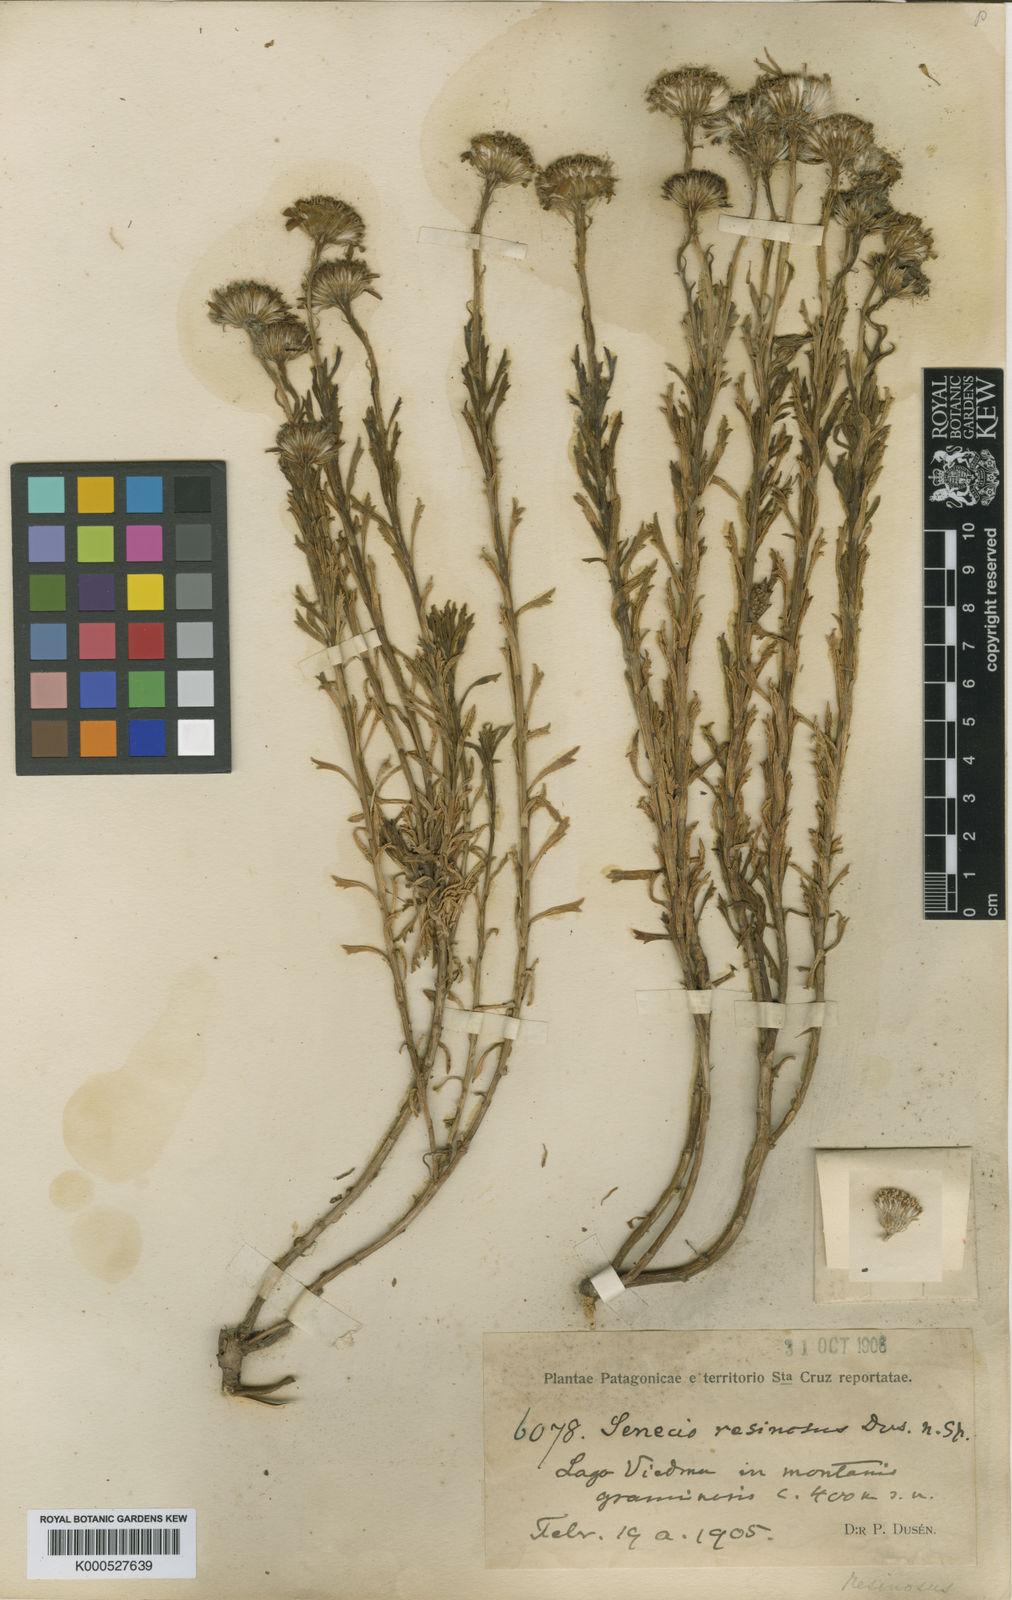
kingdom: Plantae
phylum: Tracheophyta
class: Magnoliopsida
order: Asterales
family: Asteraceae
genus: Senecio
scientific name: Senecio
